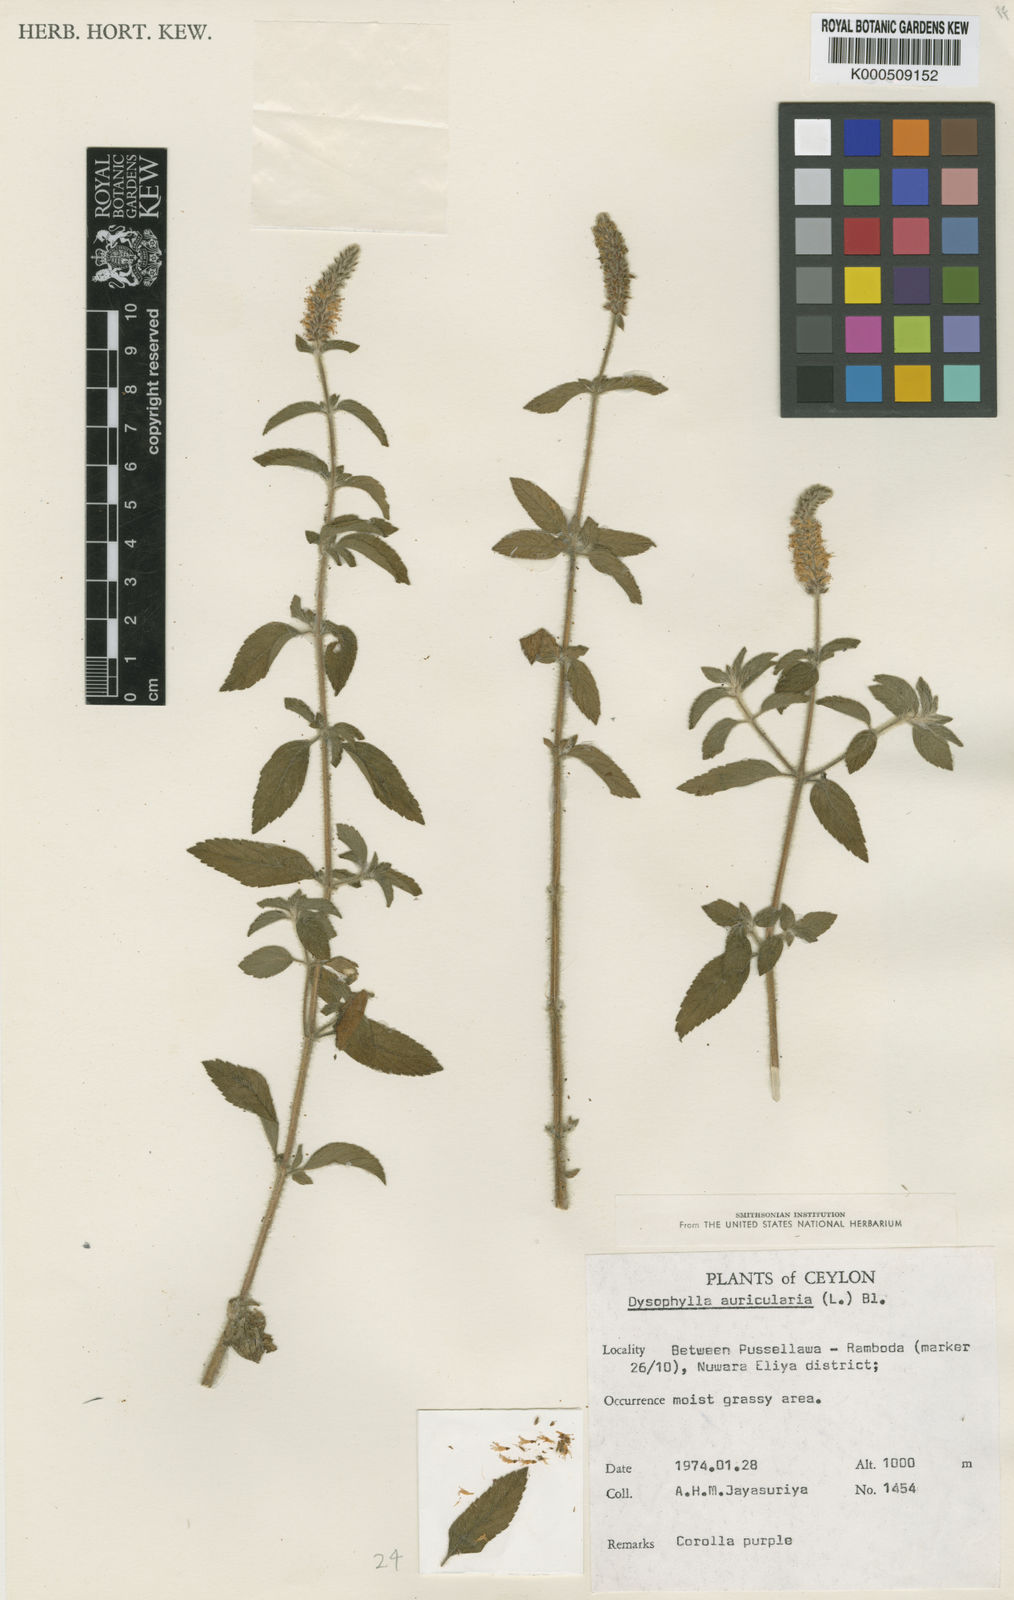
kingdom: Plantae
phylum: Tracheophyta
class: Magnoliopsida
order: Lamiales
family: Lamiaceae
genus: Pogostemon
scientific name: Pogostemon auricularius
